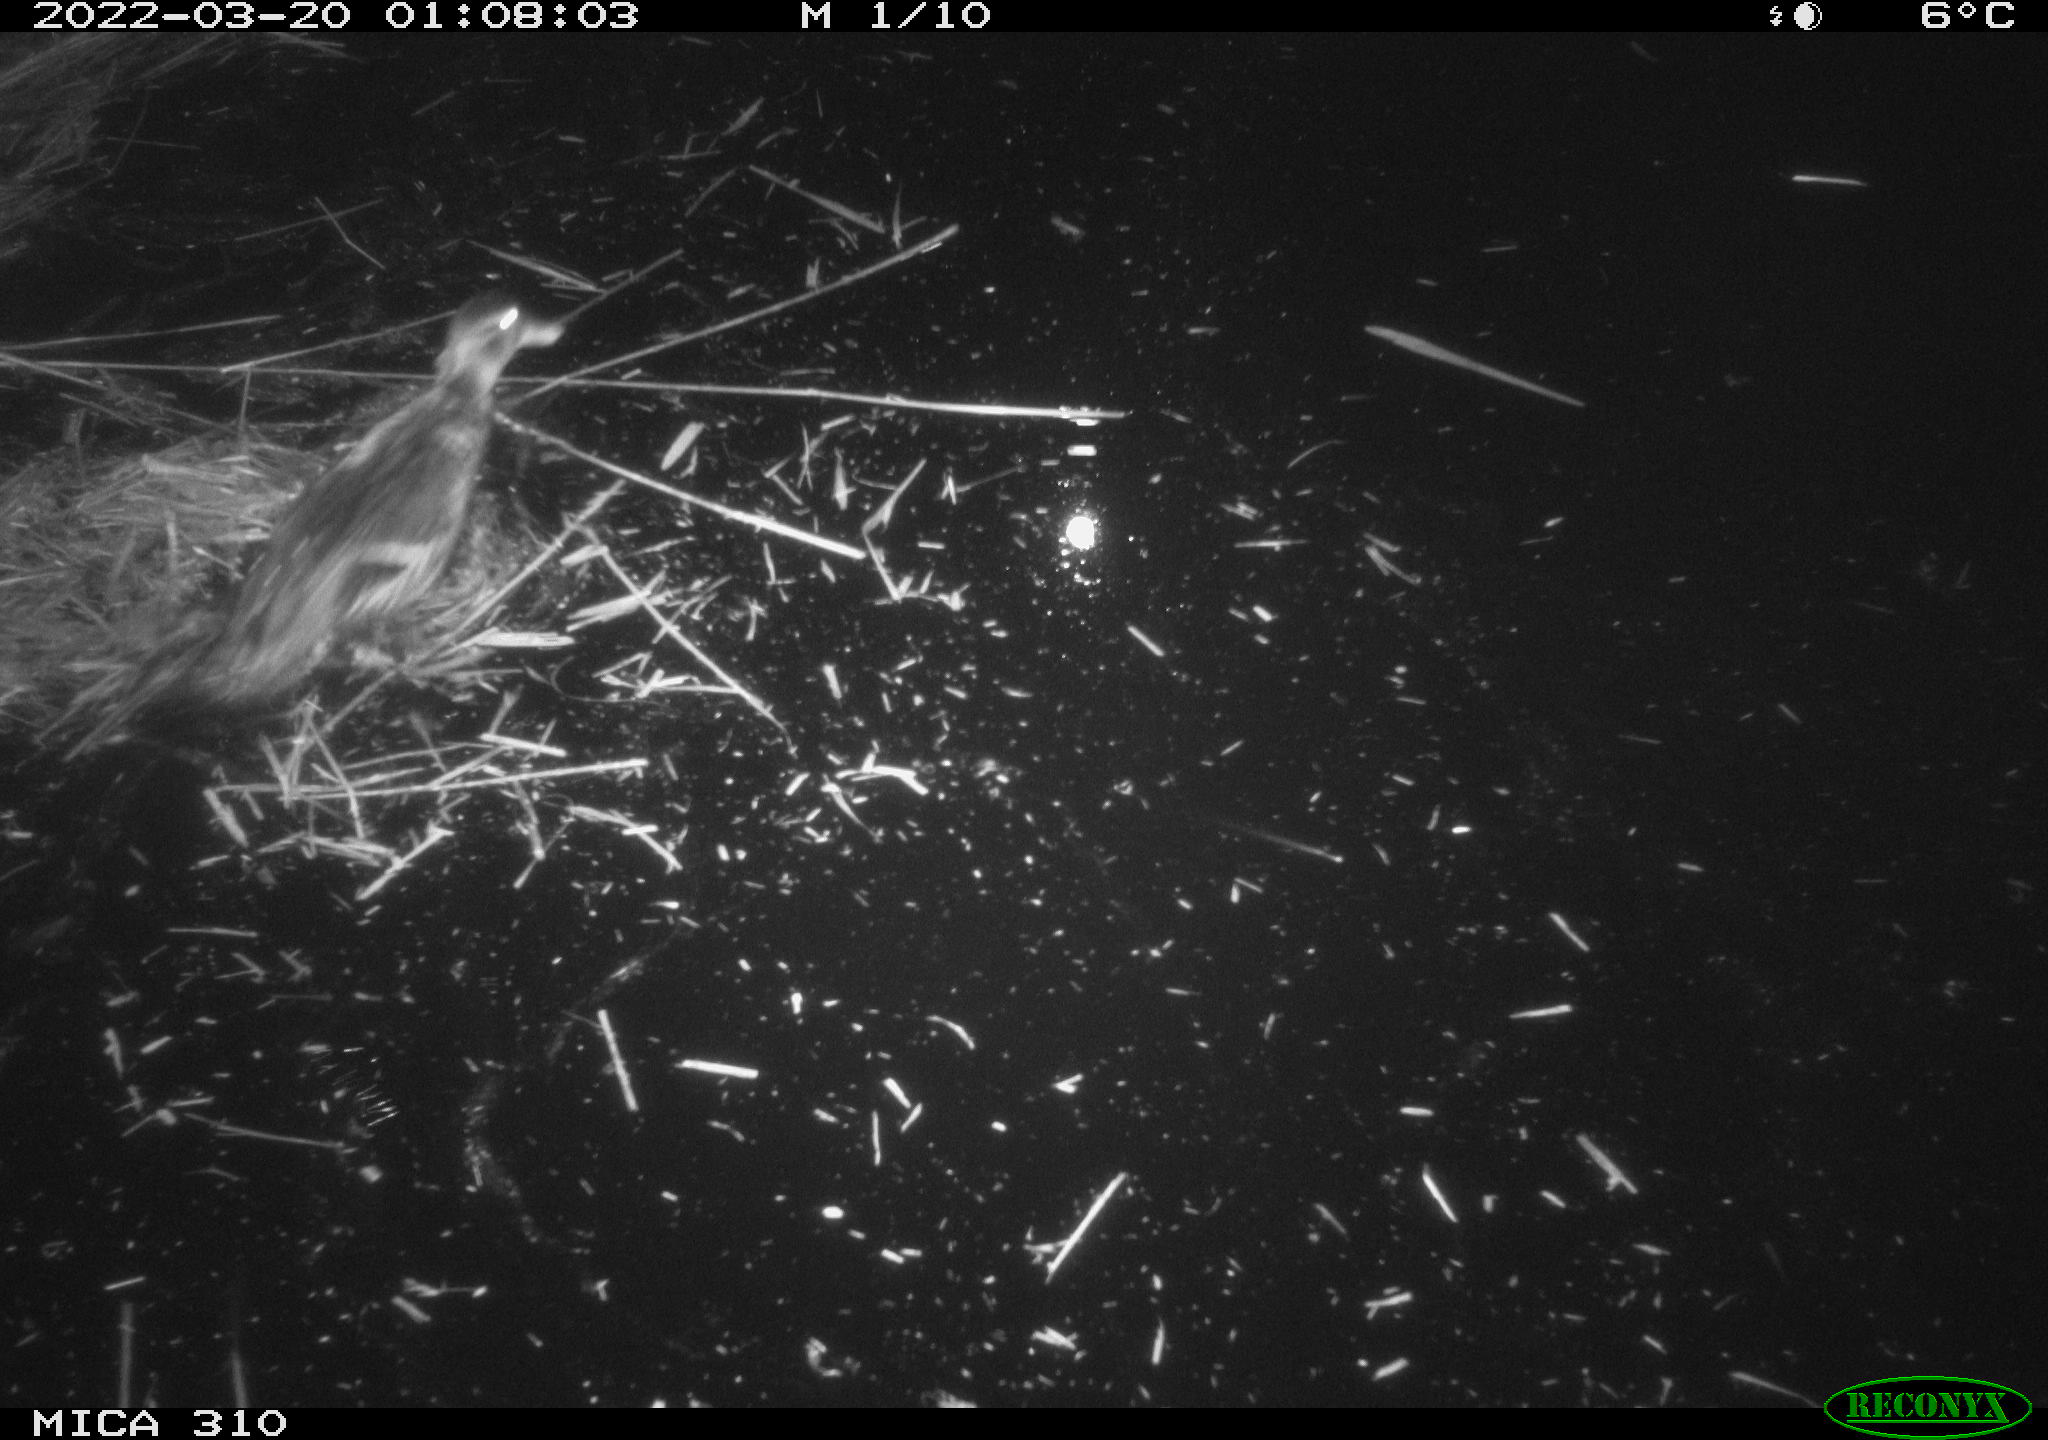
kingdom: Animalia
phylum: Chordata
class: Aves
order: Anseriformes
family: Anatidae
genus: Anas
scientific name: Anas platyrhynchos
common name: Mallard
